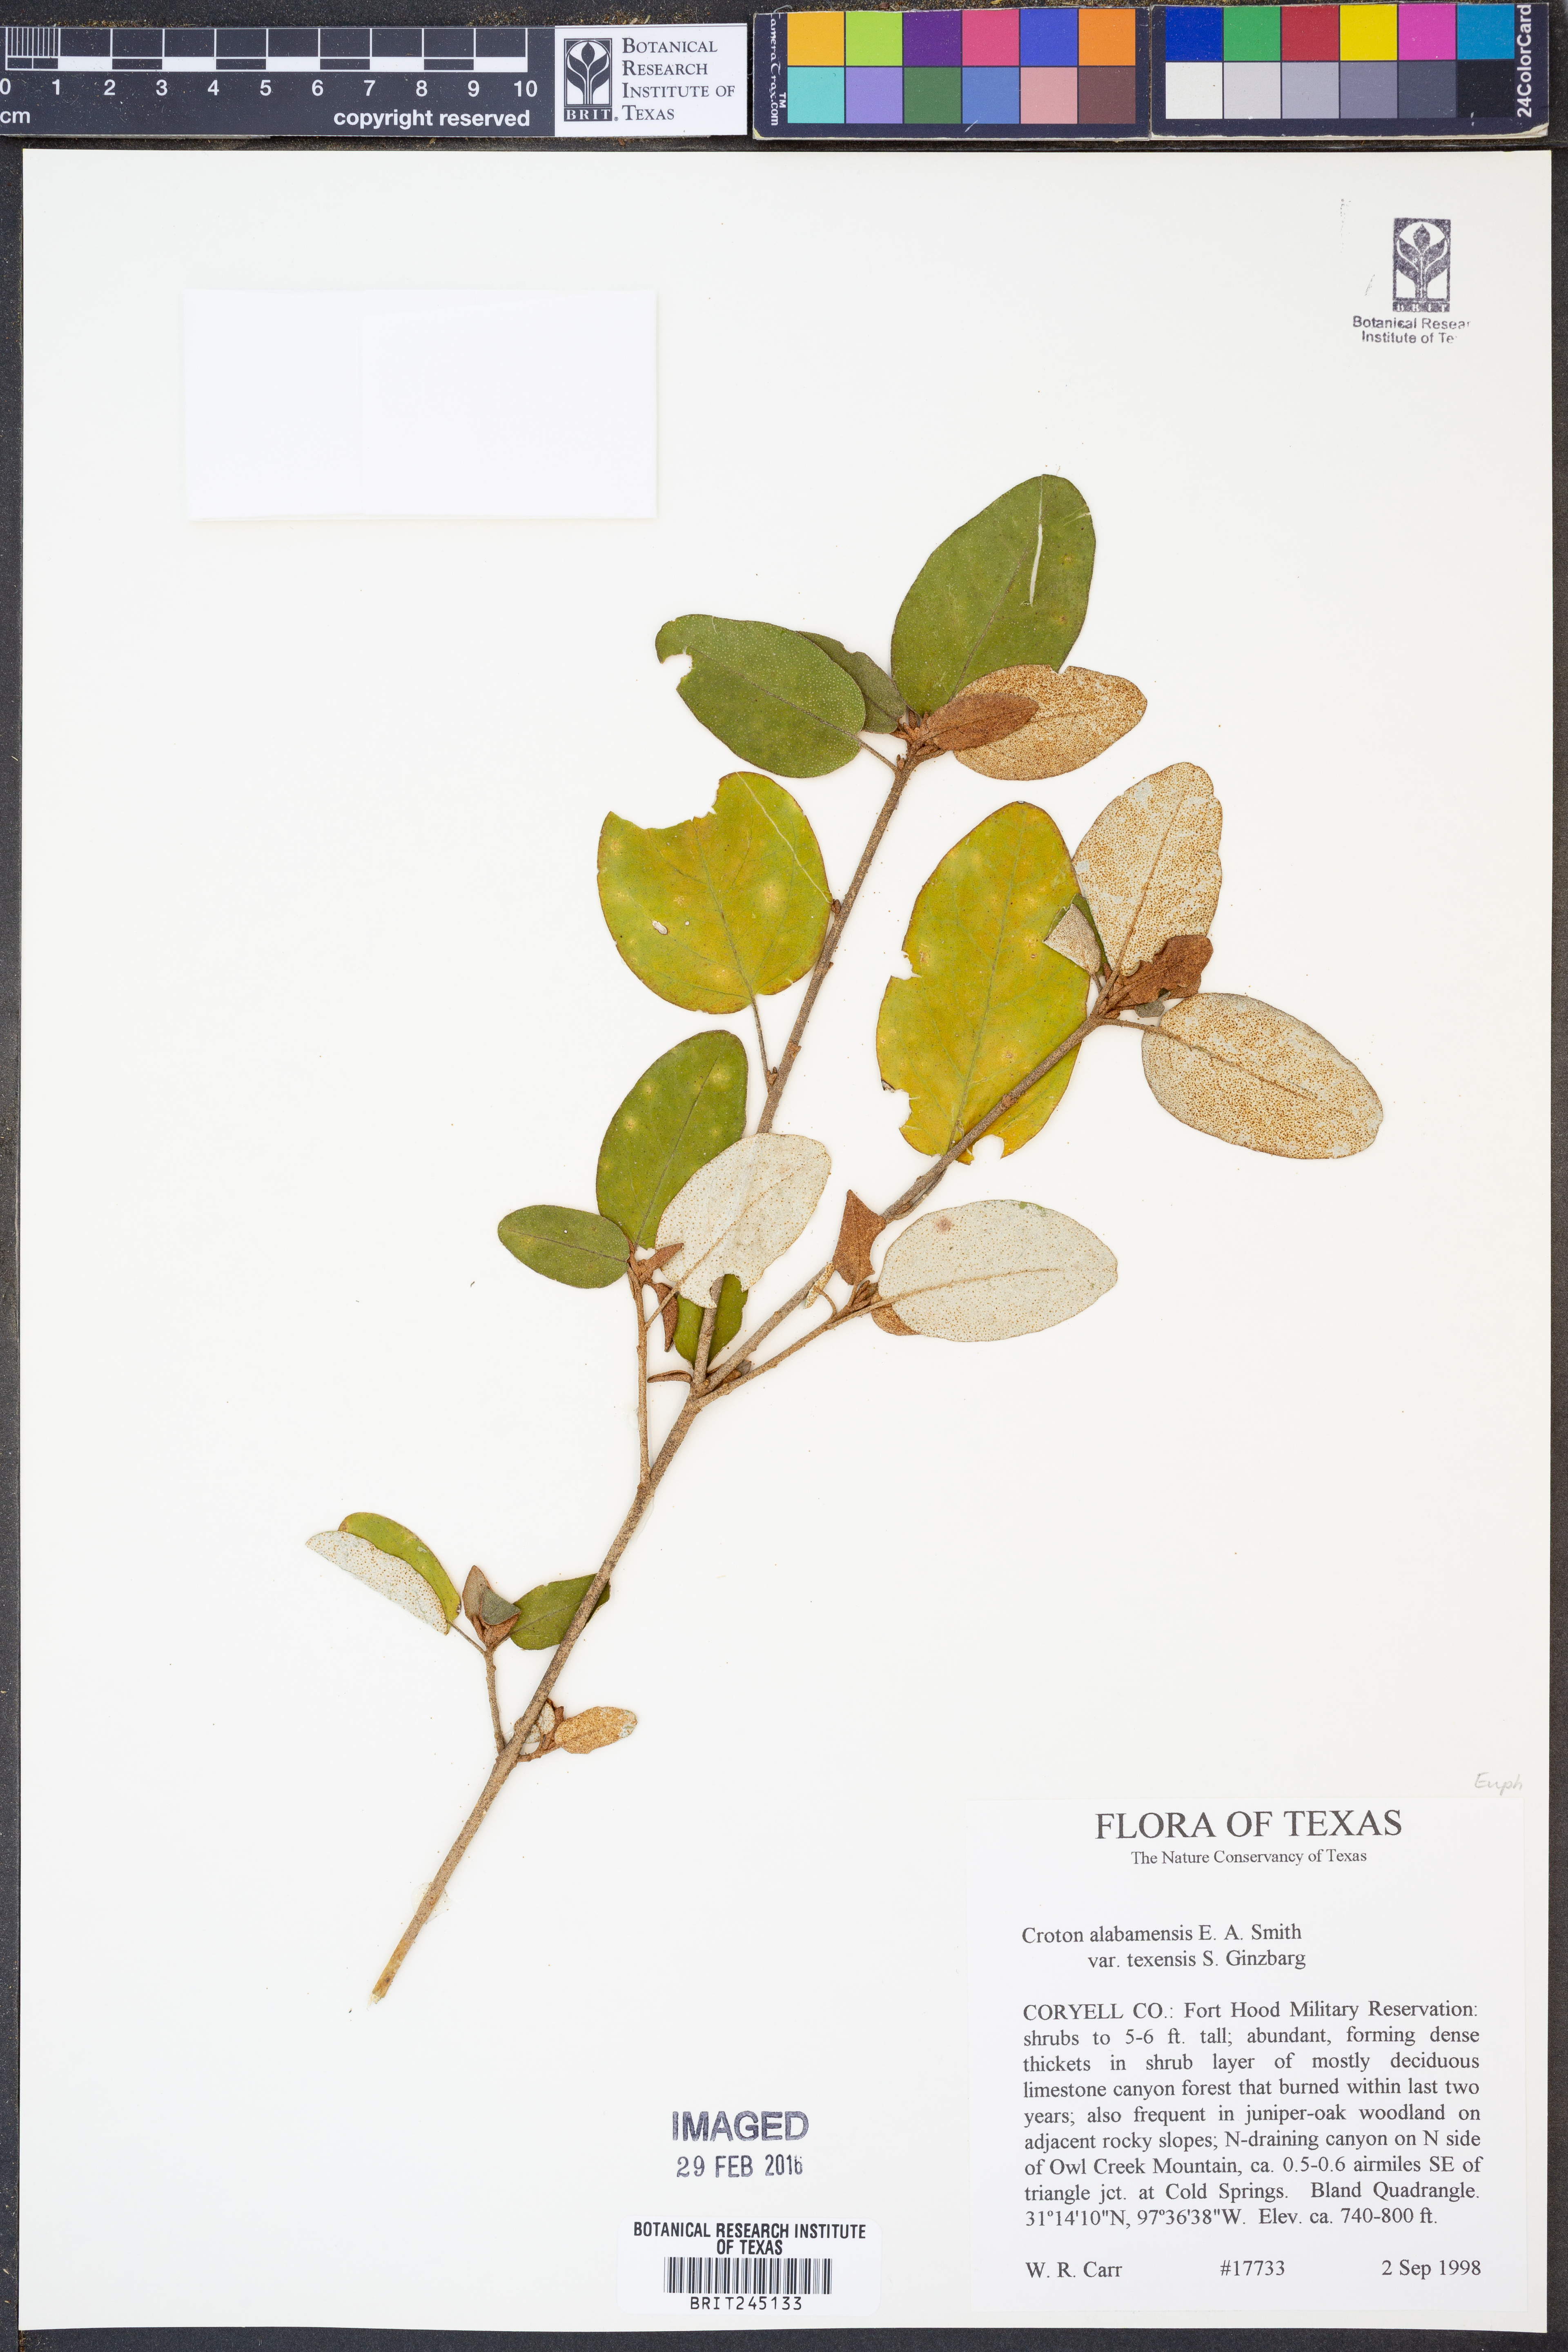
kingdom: Plantae
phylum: Tracheophyta
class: Magnoliopsida
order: Malpighiales
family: Euphorbiaceae
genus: Croton
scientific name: Croton alabamensis
